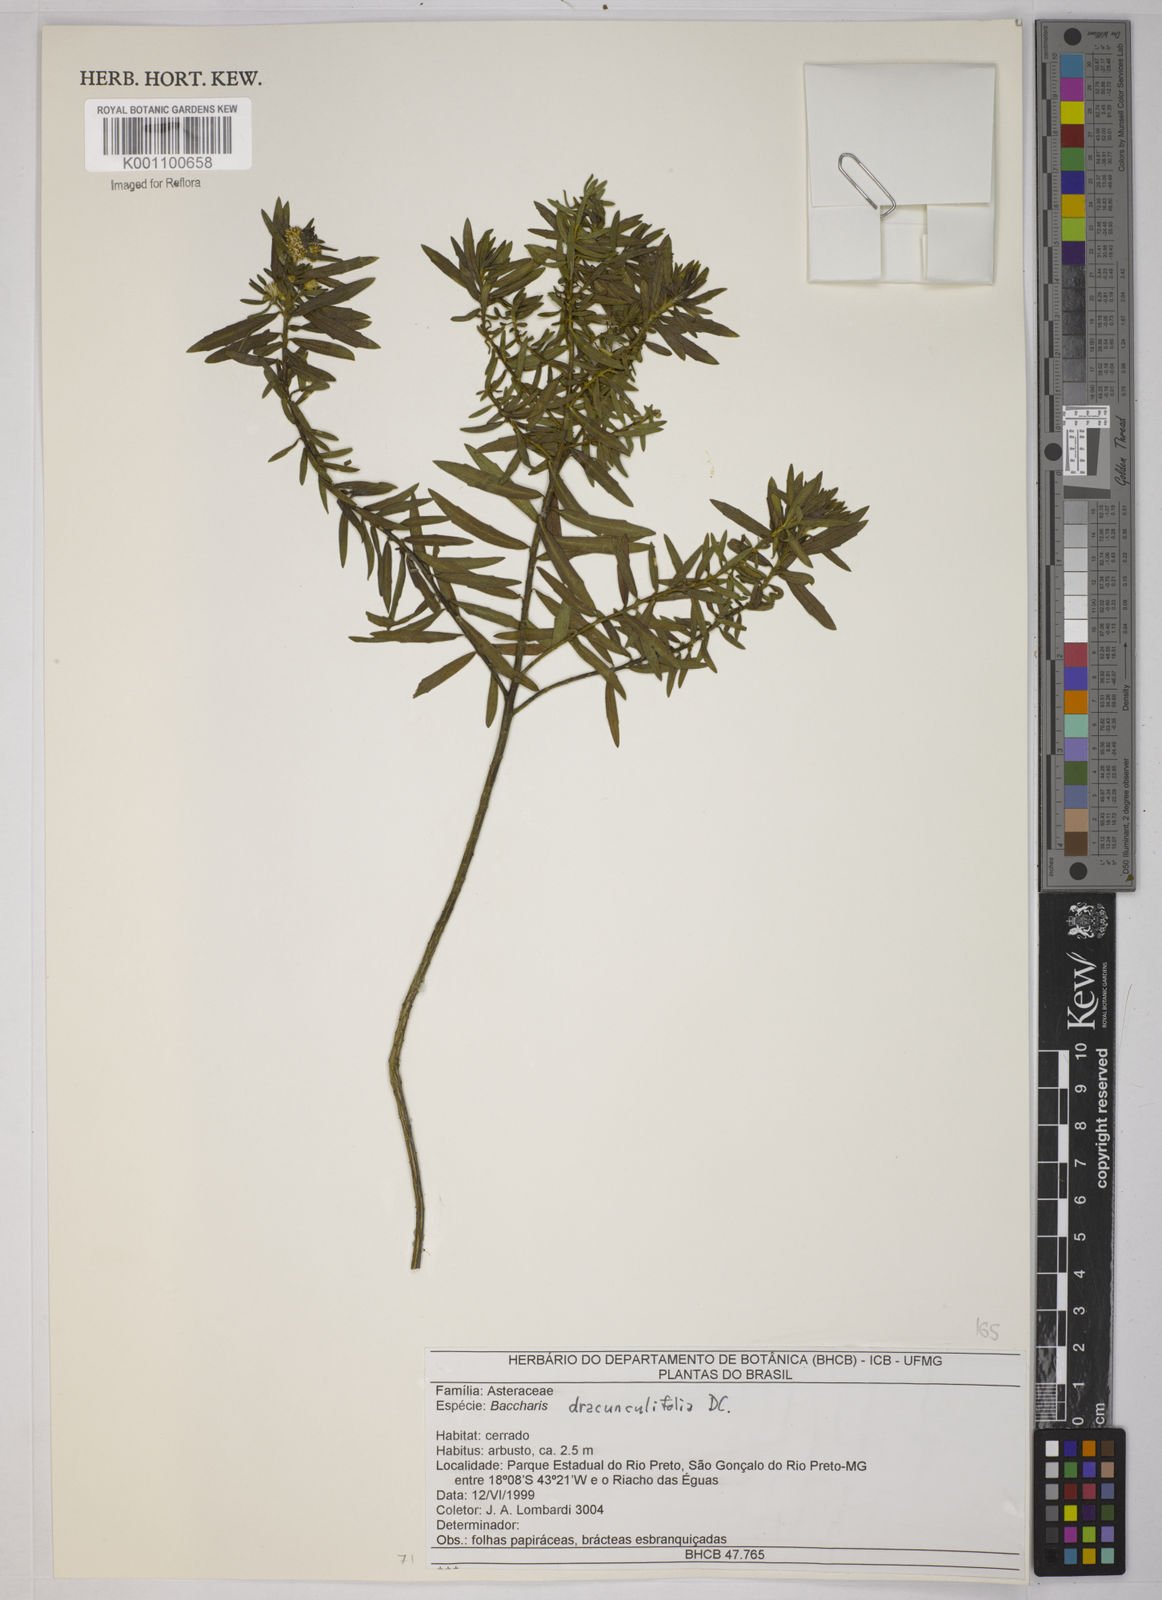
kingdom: Plantae
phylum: Tracheophyta
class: Magnoliopsida
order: Asterales
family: Asteraceae
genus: Baccharis
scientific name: Baccharis dracunculifolia
